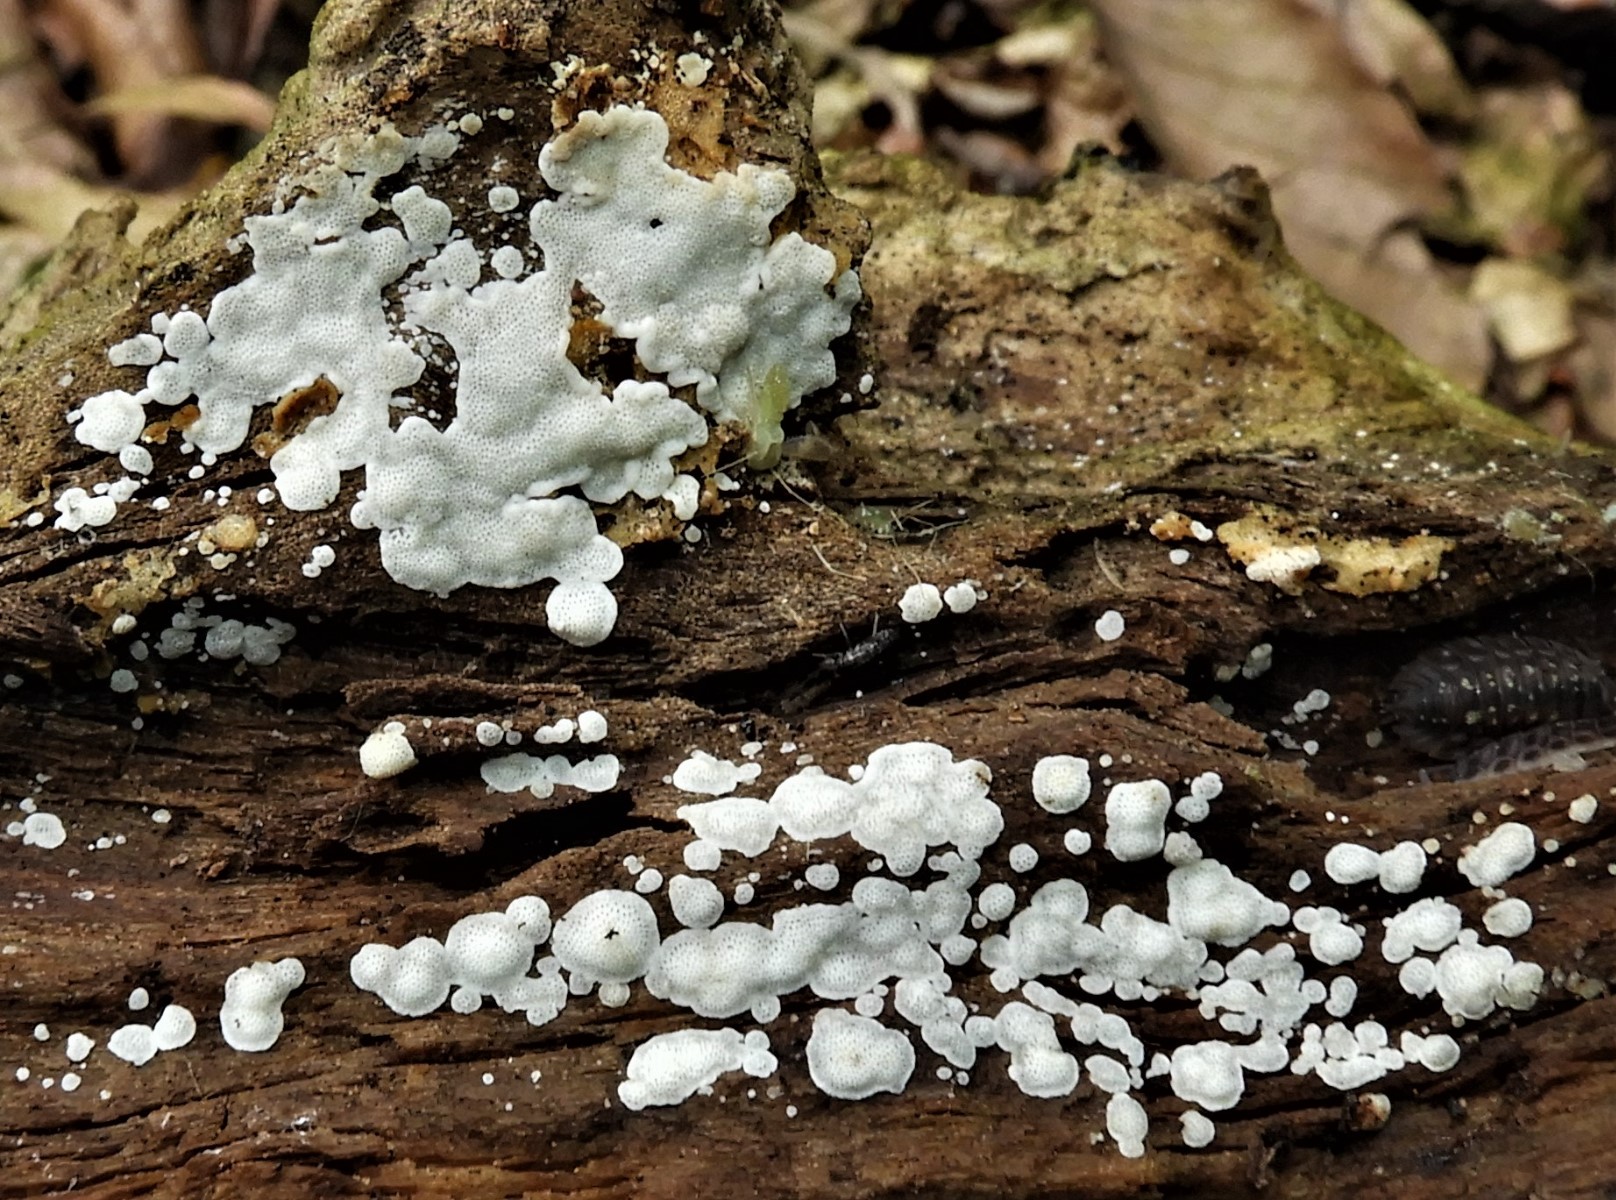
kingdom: Fungi
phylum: Basidiomycota
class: Agaricomycetes
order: Polyporales
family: Meruliaceae
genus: Physisporinus
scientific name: Physisporinus
